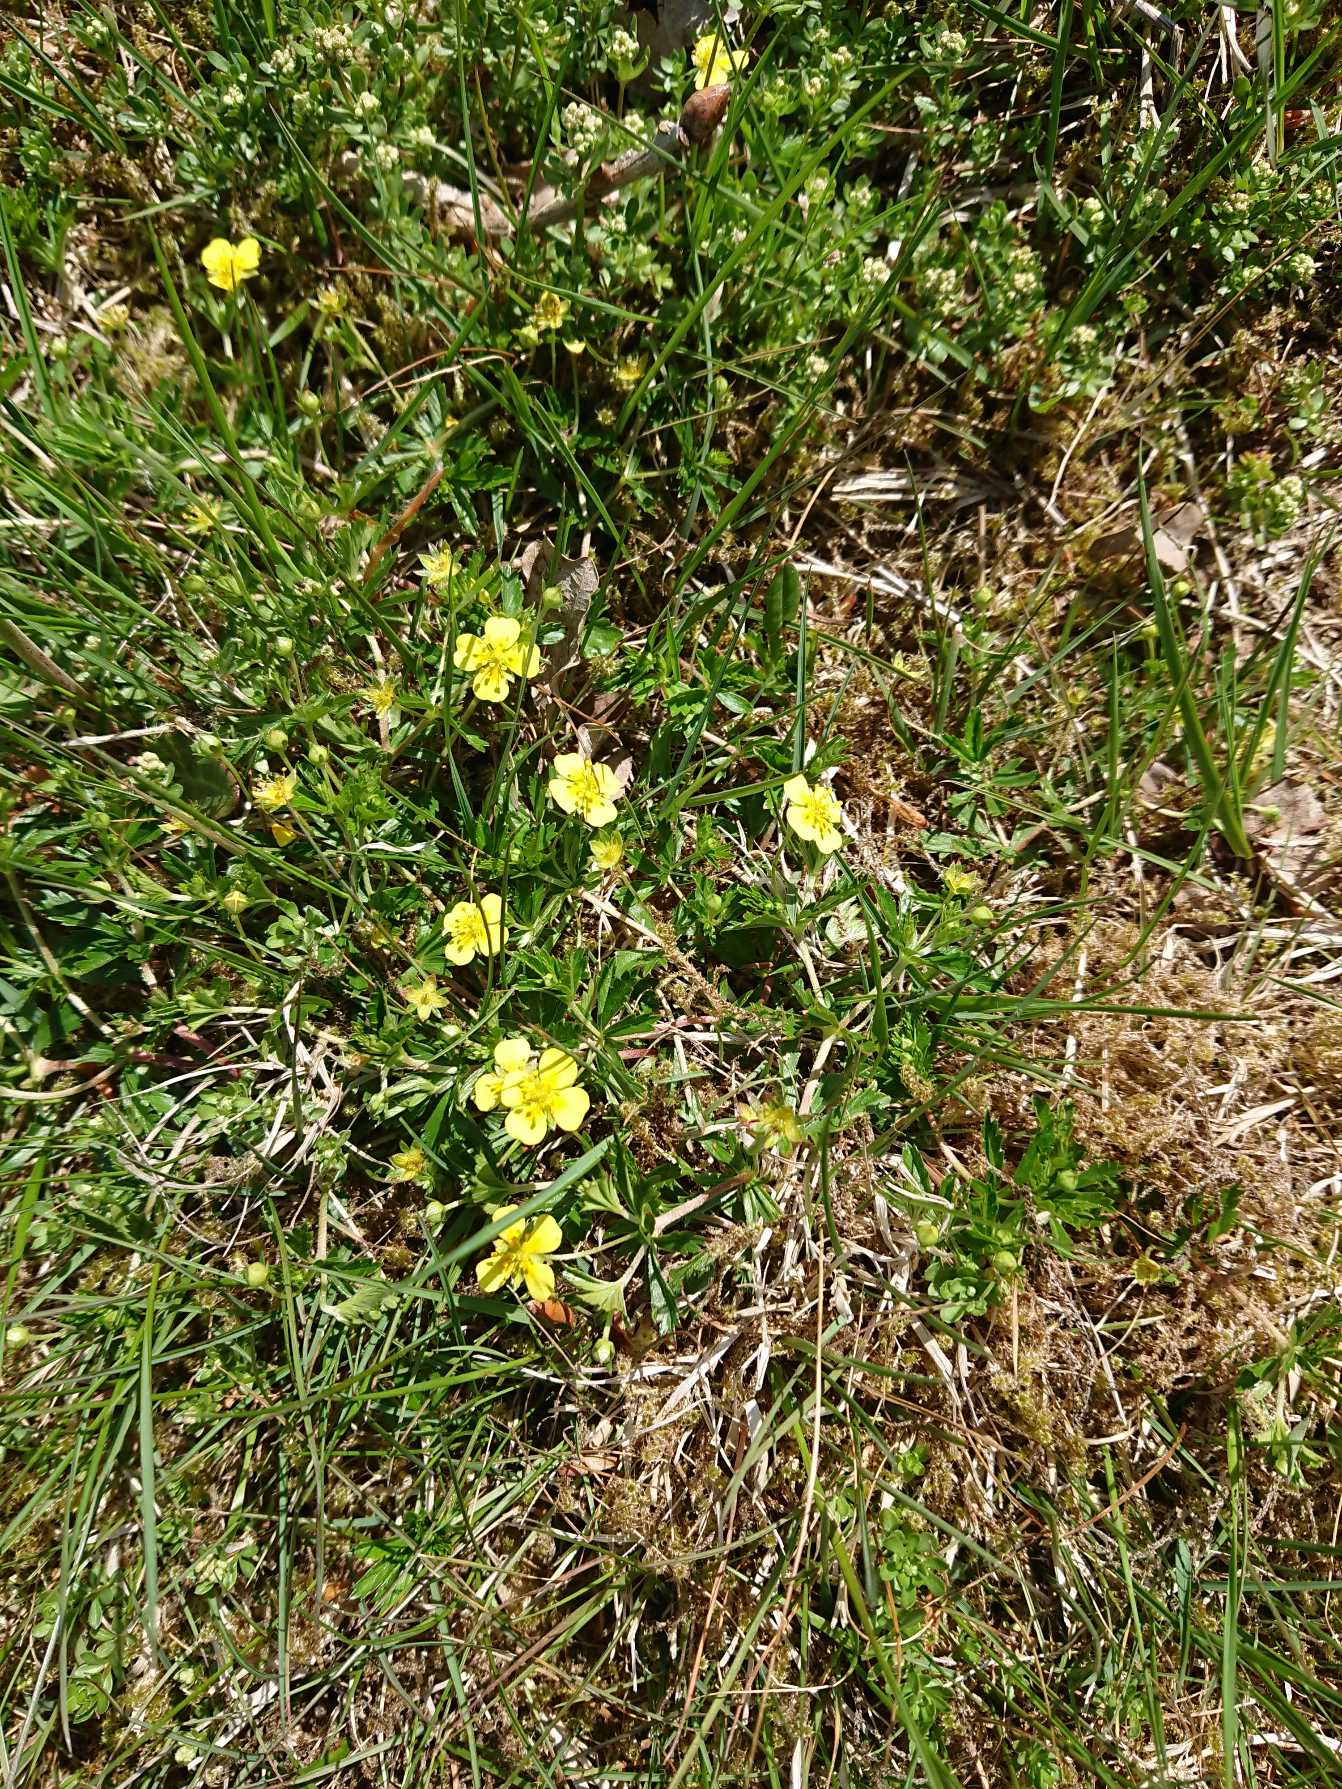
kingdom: Plantae
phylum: Tracheophyta
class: Magnoliopsida
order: Rosales
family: Rosaceae
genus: Potentilla
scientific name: Potentilla erecta
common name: Tormentil
